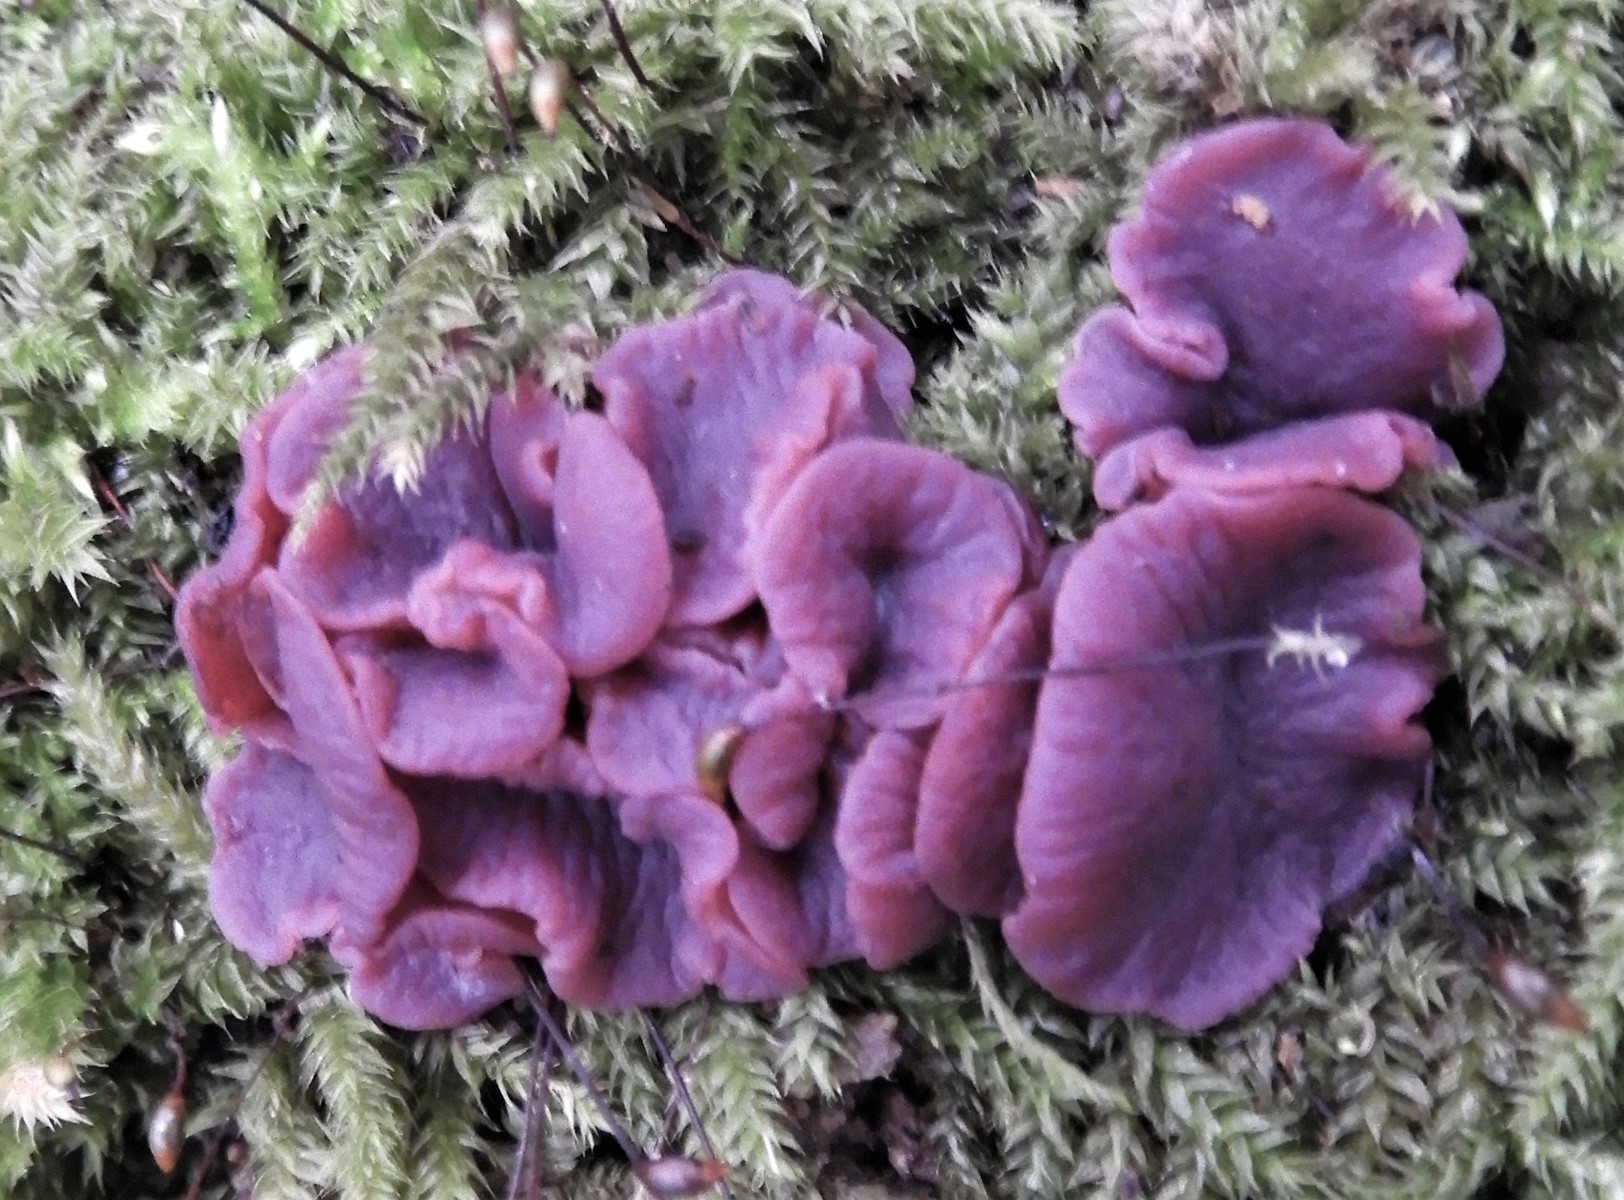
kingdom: Fungi
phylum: Ascomycota
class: Leotiomycetes
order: Helotiales
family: Gelatinodiscaceae
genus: Ascocoryne
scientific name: Ascocoryne cylichnium
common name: stor sejskive
